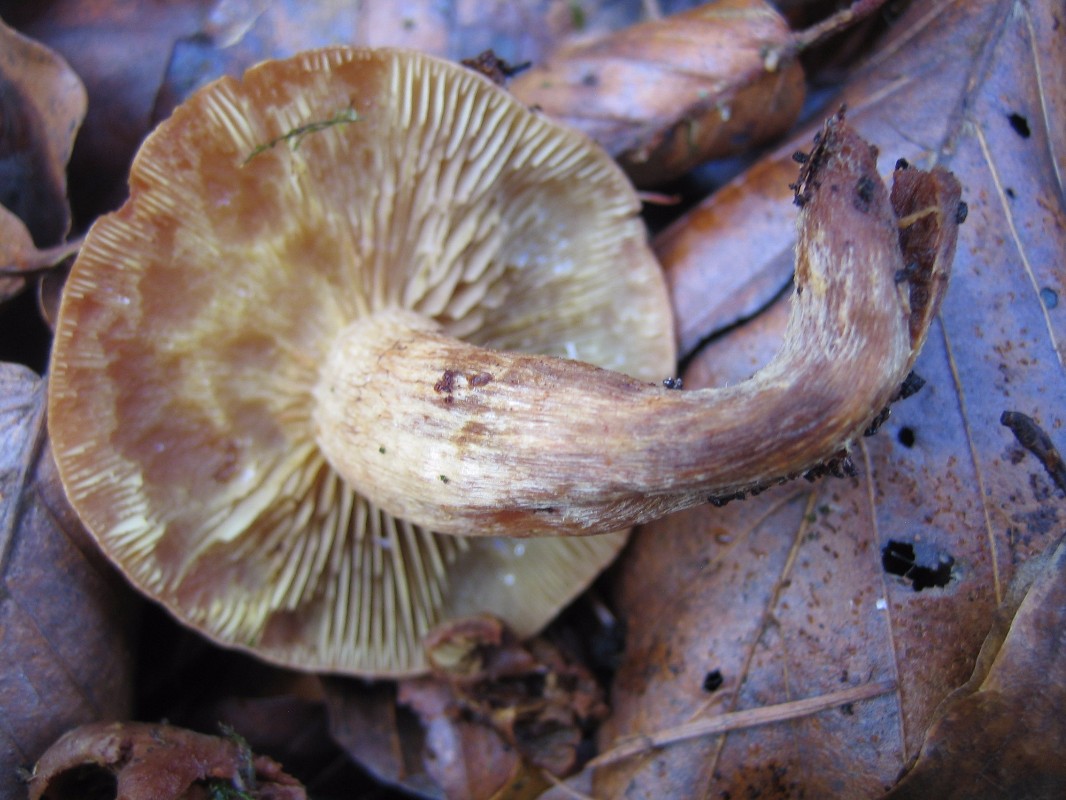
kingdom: Fungi
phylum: Basidiomycota
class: Agaricomycetes
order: Agaricales
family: Strophariaceae
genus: Hypholoma
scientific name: Hypholoma lateritium
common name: teglrød svovlhat
